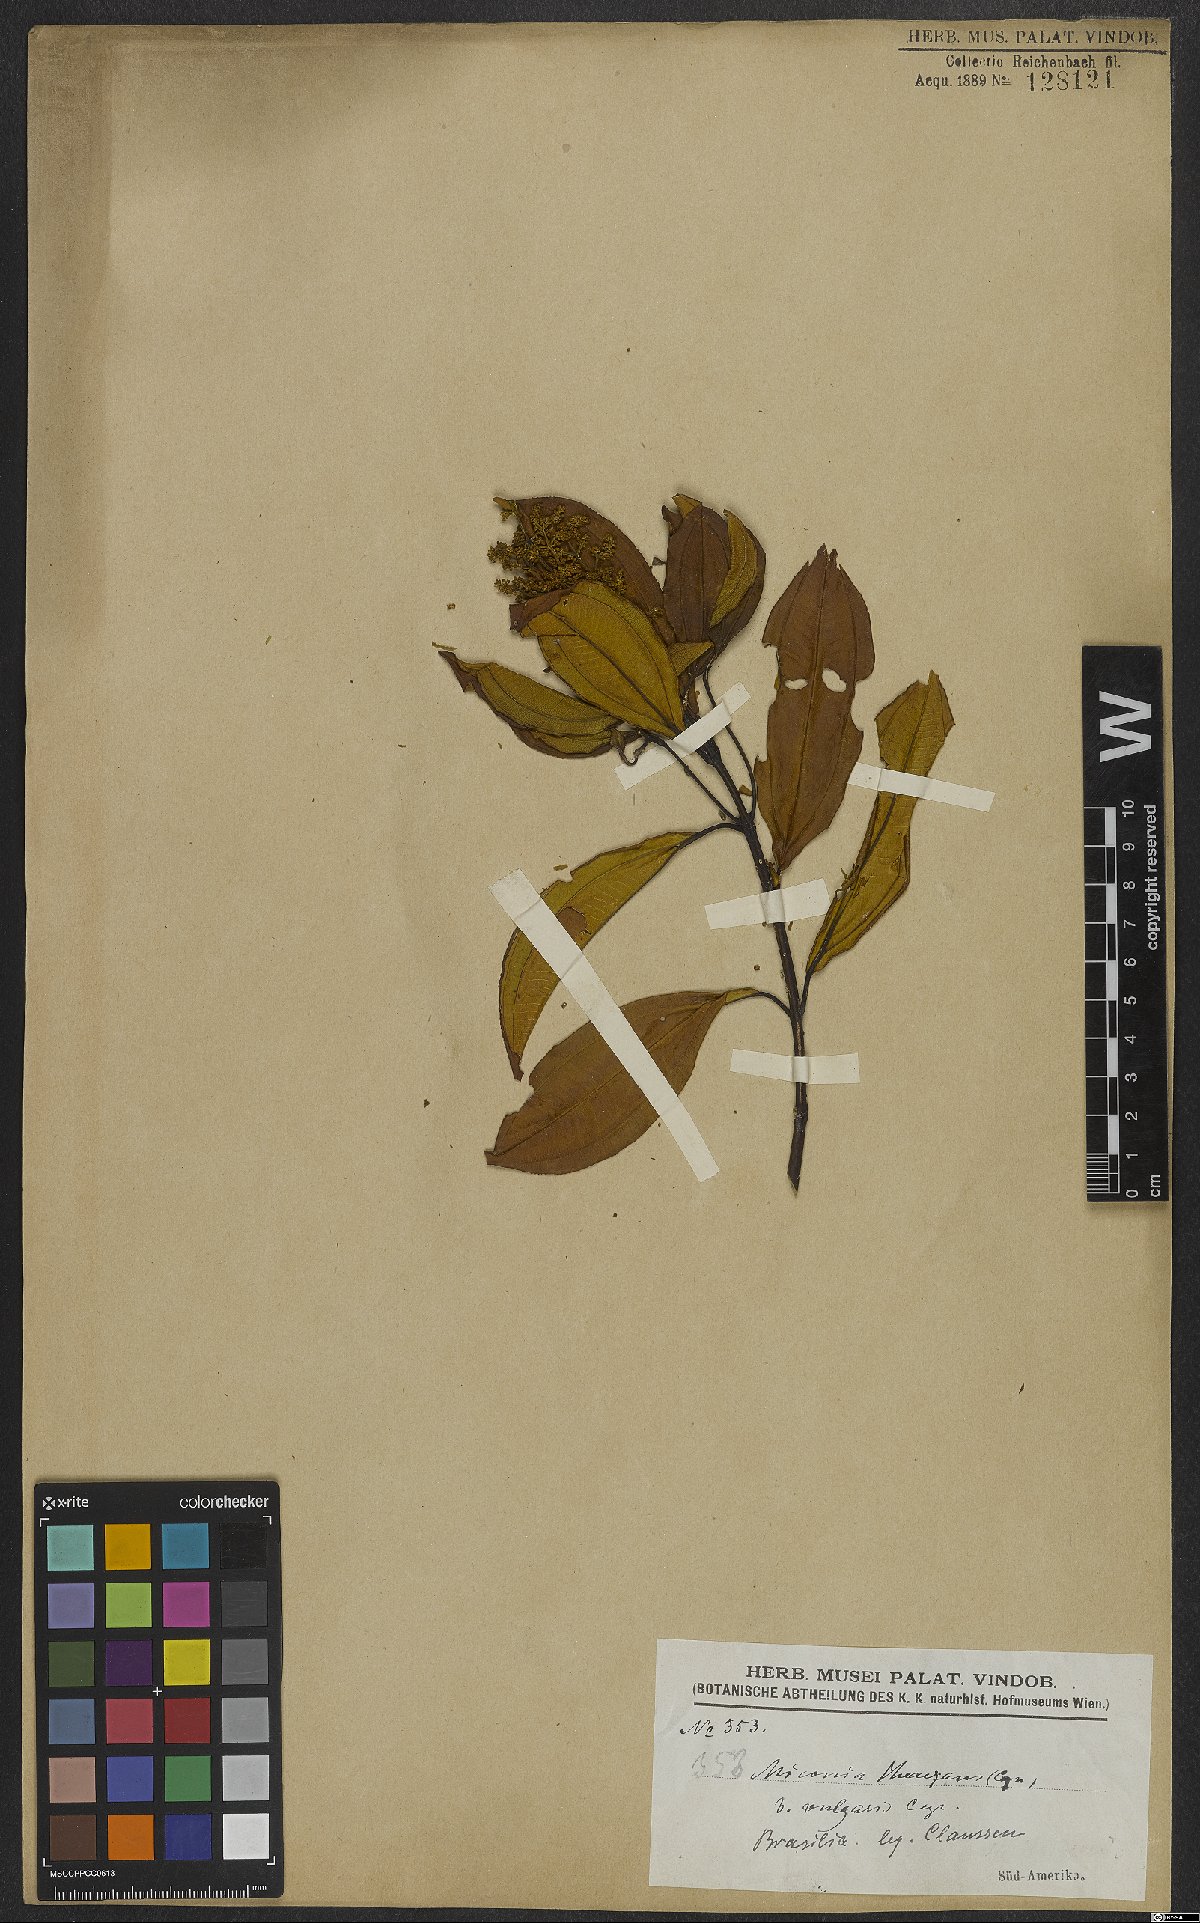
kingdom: Plantae
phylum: Tracheophyta
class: Magnoliopsida
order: Myrtales
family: Melastomataceae
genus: Miconia
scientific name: Miconia theizans
